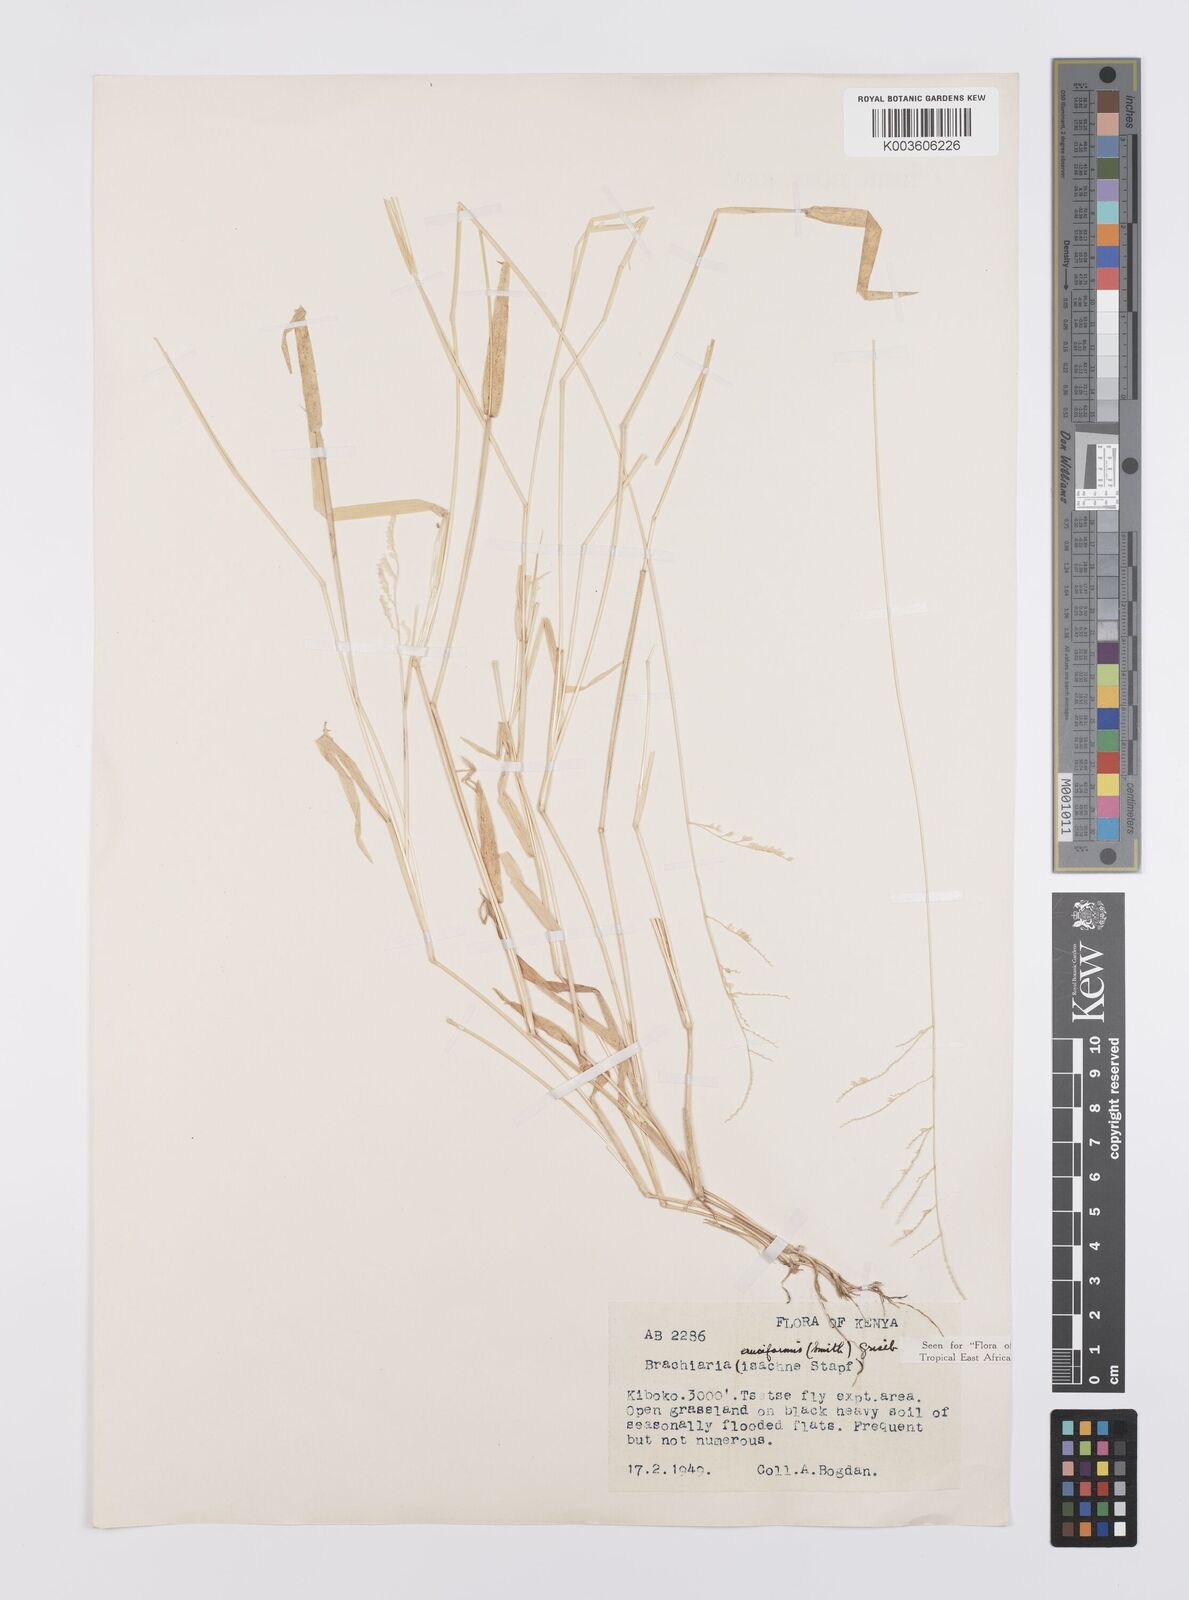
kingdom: Plantae
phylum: Tracheophyta
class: Liliopsida
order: Poales
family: Poaceae
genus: Moorochloa
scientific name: Moorochloa eruciformis
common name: Sweet signalgrass
